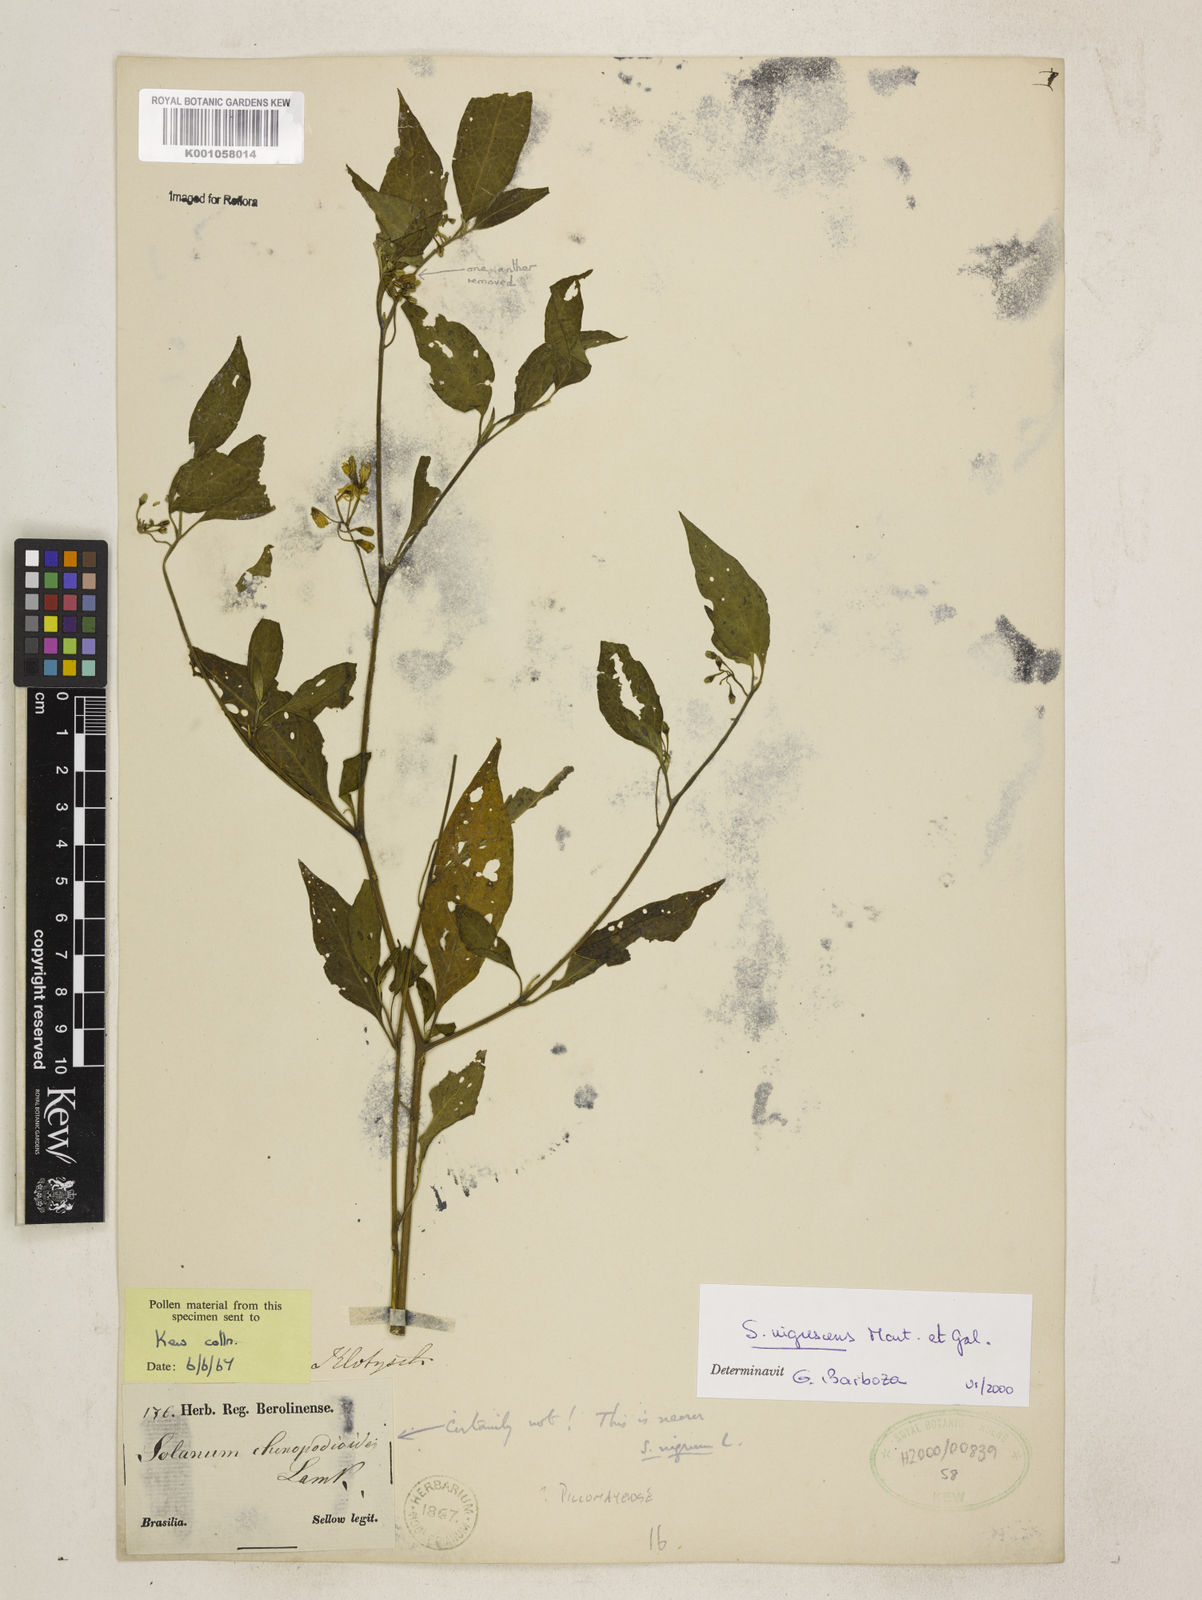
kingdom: Plantae
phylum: Tracheophyta
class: Magnoliopsida
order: Solanales
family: Solanaceae
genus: Solanum
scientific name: Solanum paucidens
